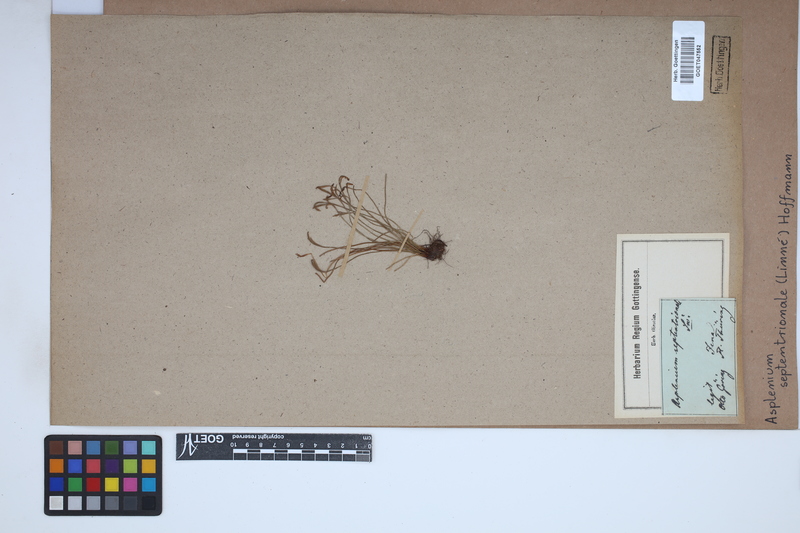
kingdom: Plantae
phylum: Tracheophyta
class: Polypodiopsida
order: Polypodiales
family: Aspleniaceae
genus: Asplenium
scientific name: Asplenium septentrionale
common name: Forked spleenwort
